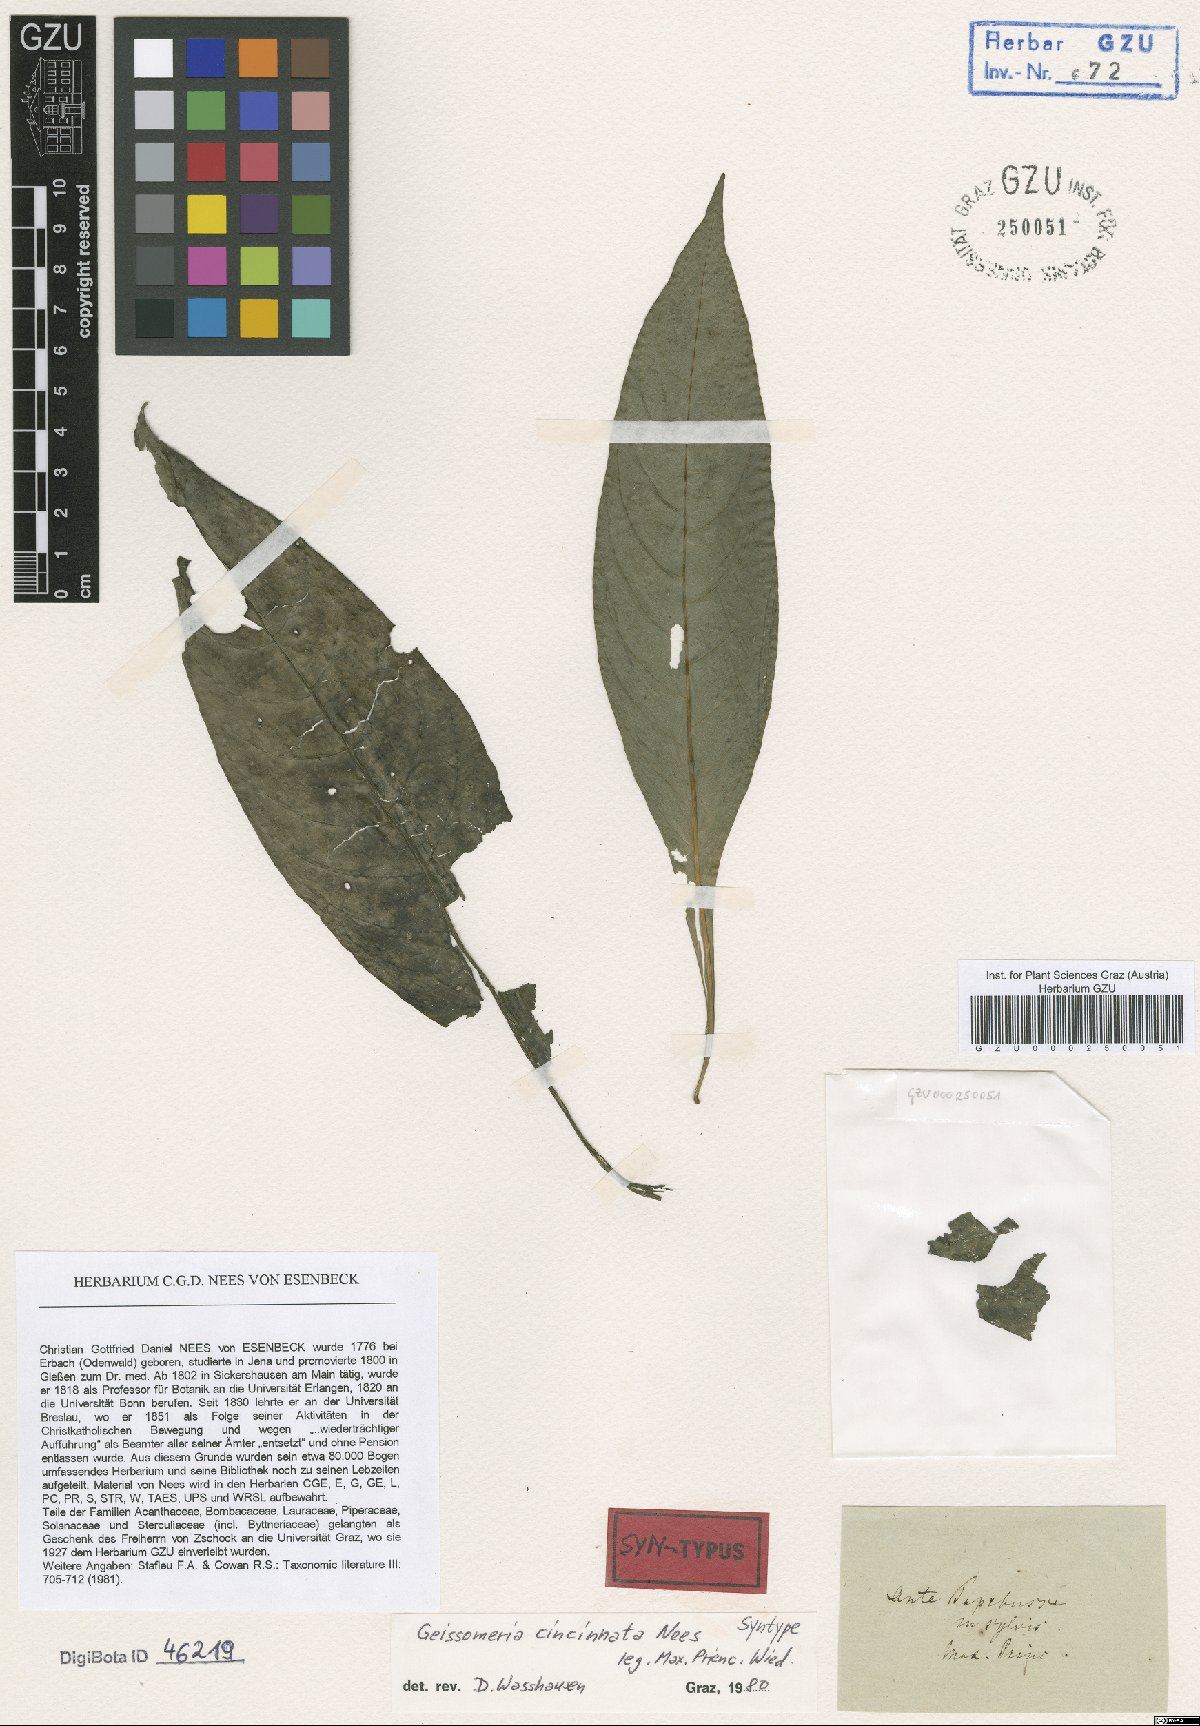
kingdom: Plantae
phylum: Tracheophyta
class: Magnoliopsida
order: Lamiales
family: Acanthaceae
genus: Aphelandra
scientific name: Aphelandra longiflora
